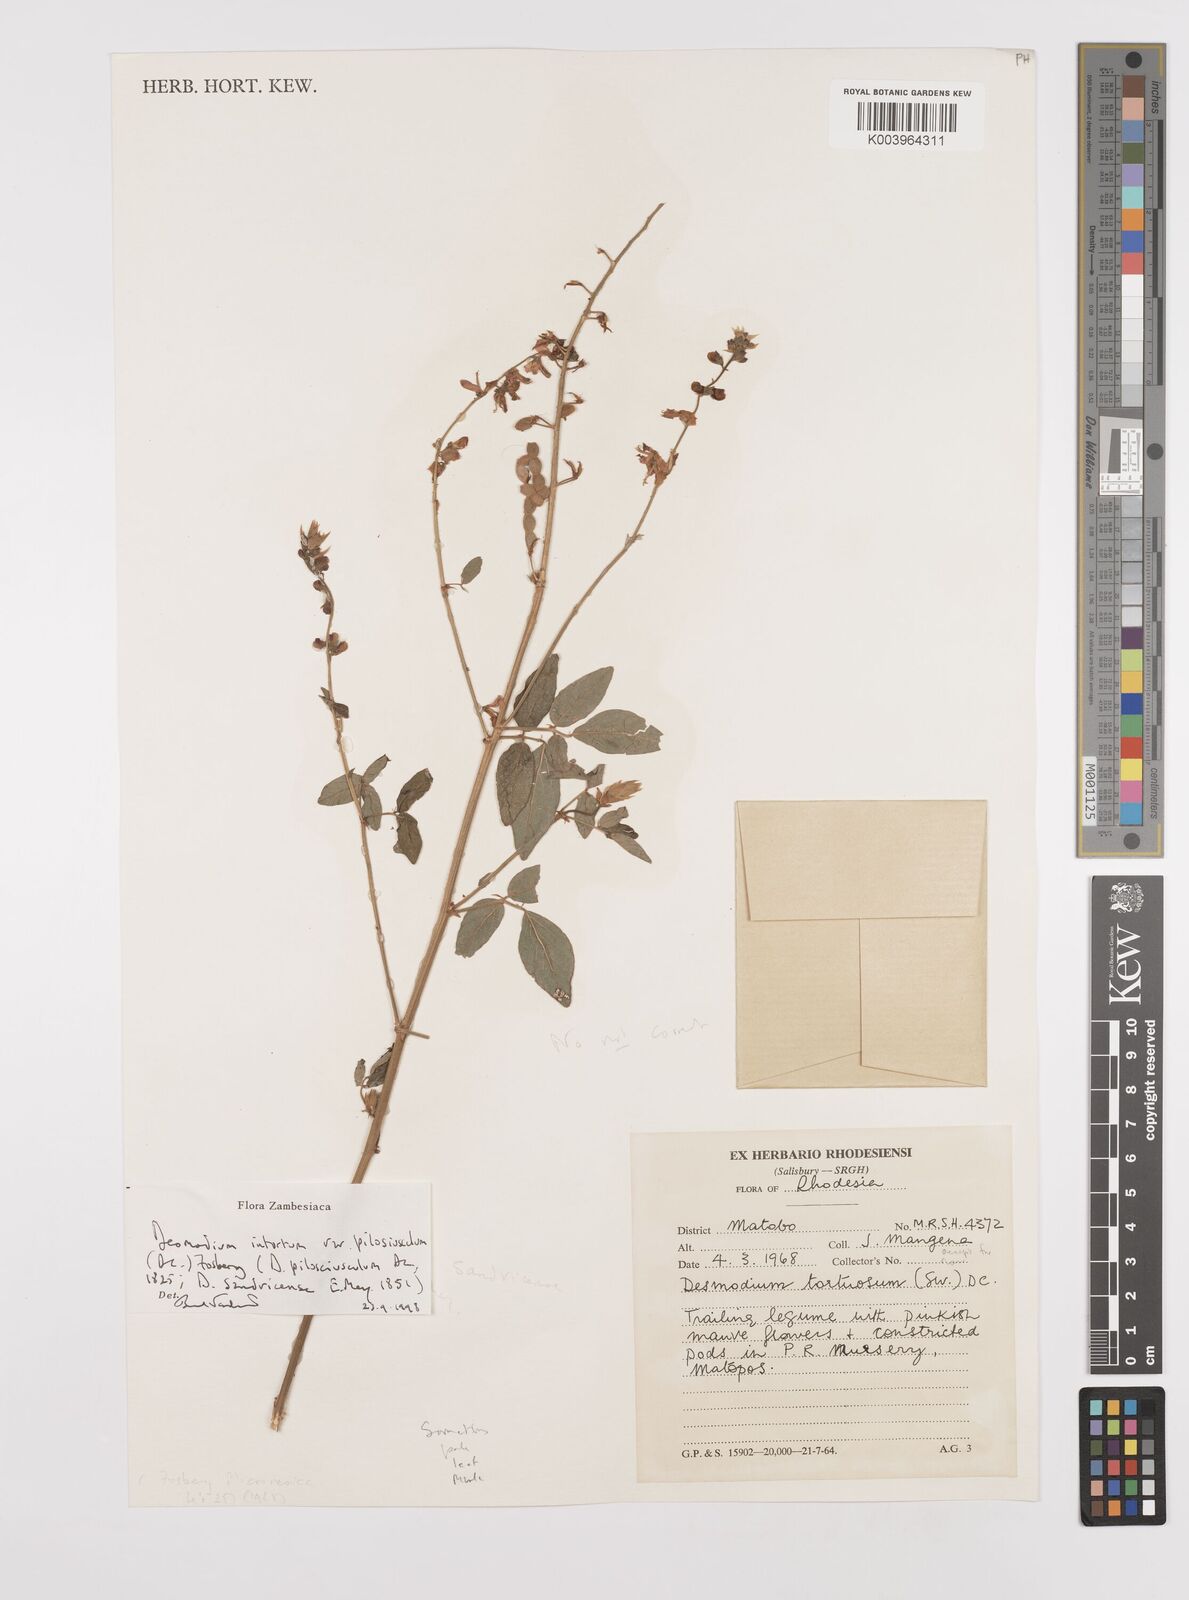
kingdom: Plantae
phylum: Tracheophyta
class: Magnoliopsida
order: Fabales
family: Fabaceae
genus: Desmodium
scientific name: Desmodium intortum
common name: Greenleaf ticktrefoil
